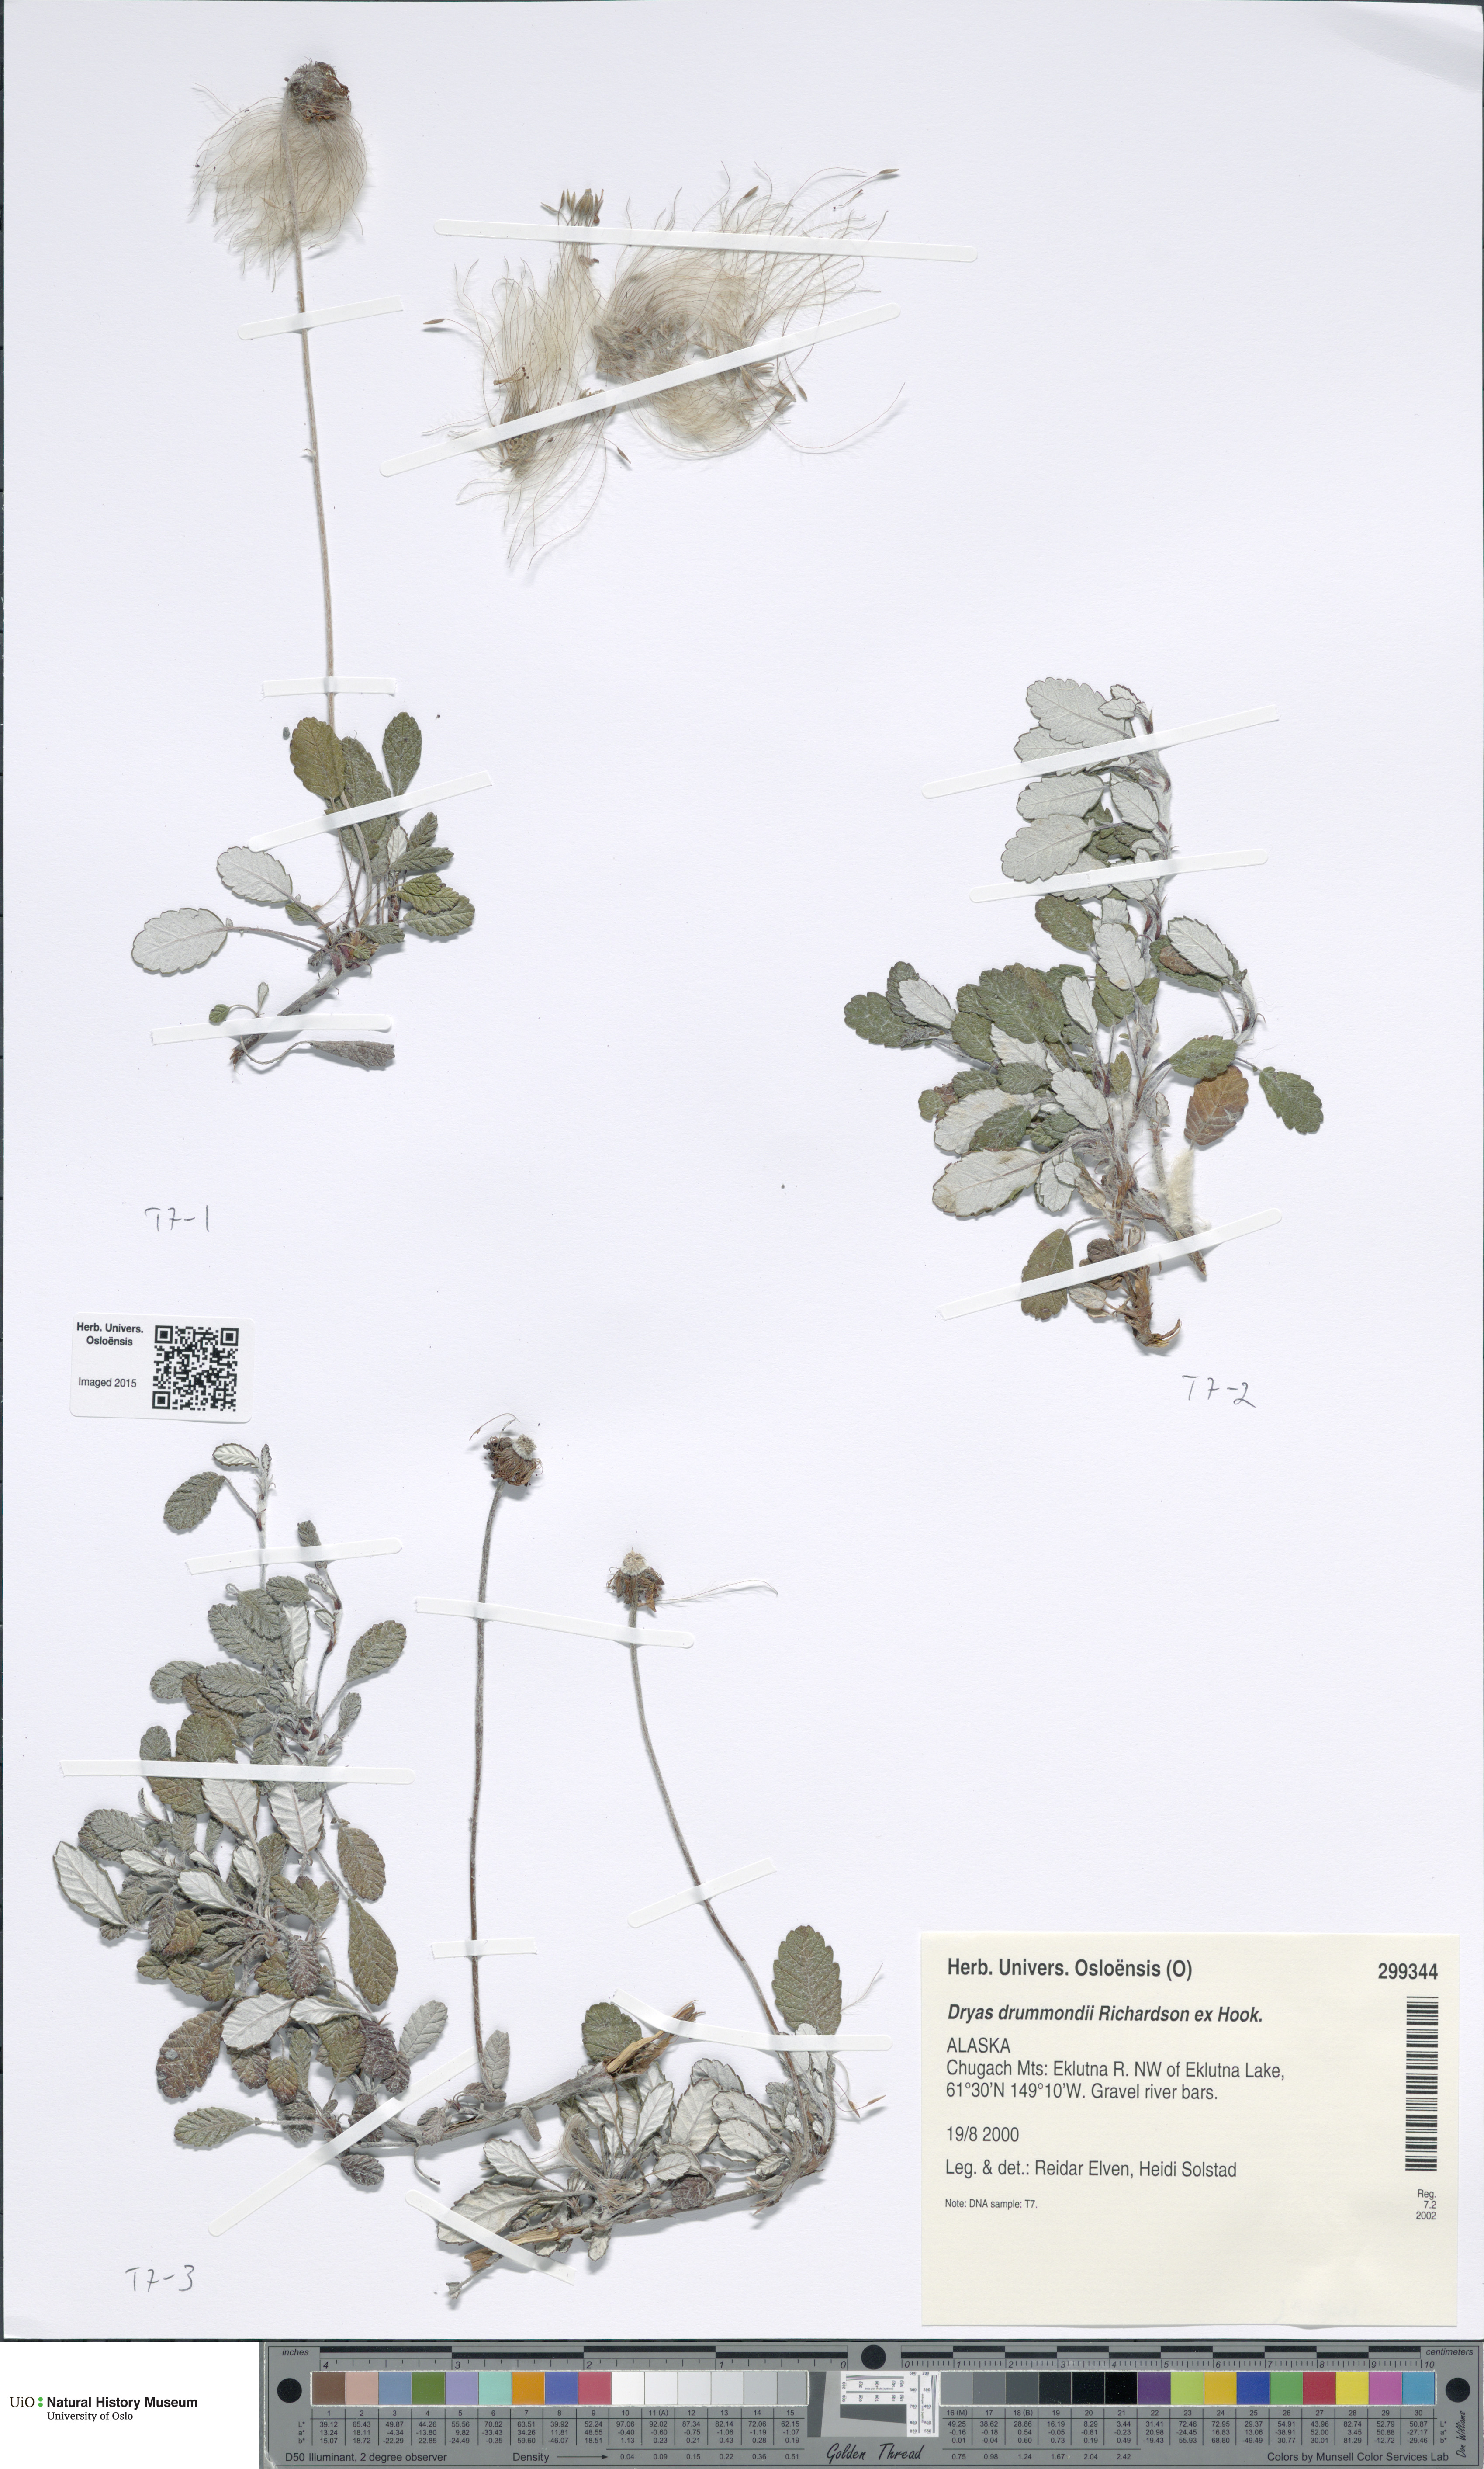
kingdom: Plantae
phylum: Tracheophyta
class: Magnoliopsida
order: Rosales
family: Rosaceae
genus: Dryas
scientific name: Dryas drummondii
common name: Drummond's dryad
